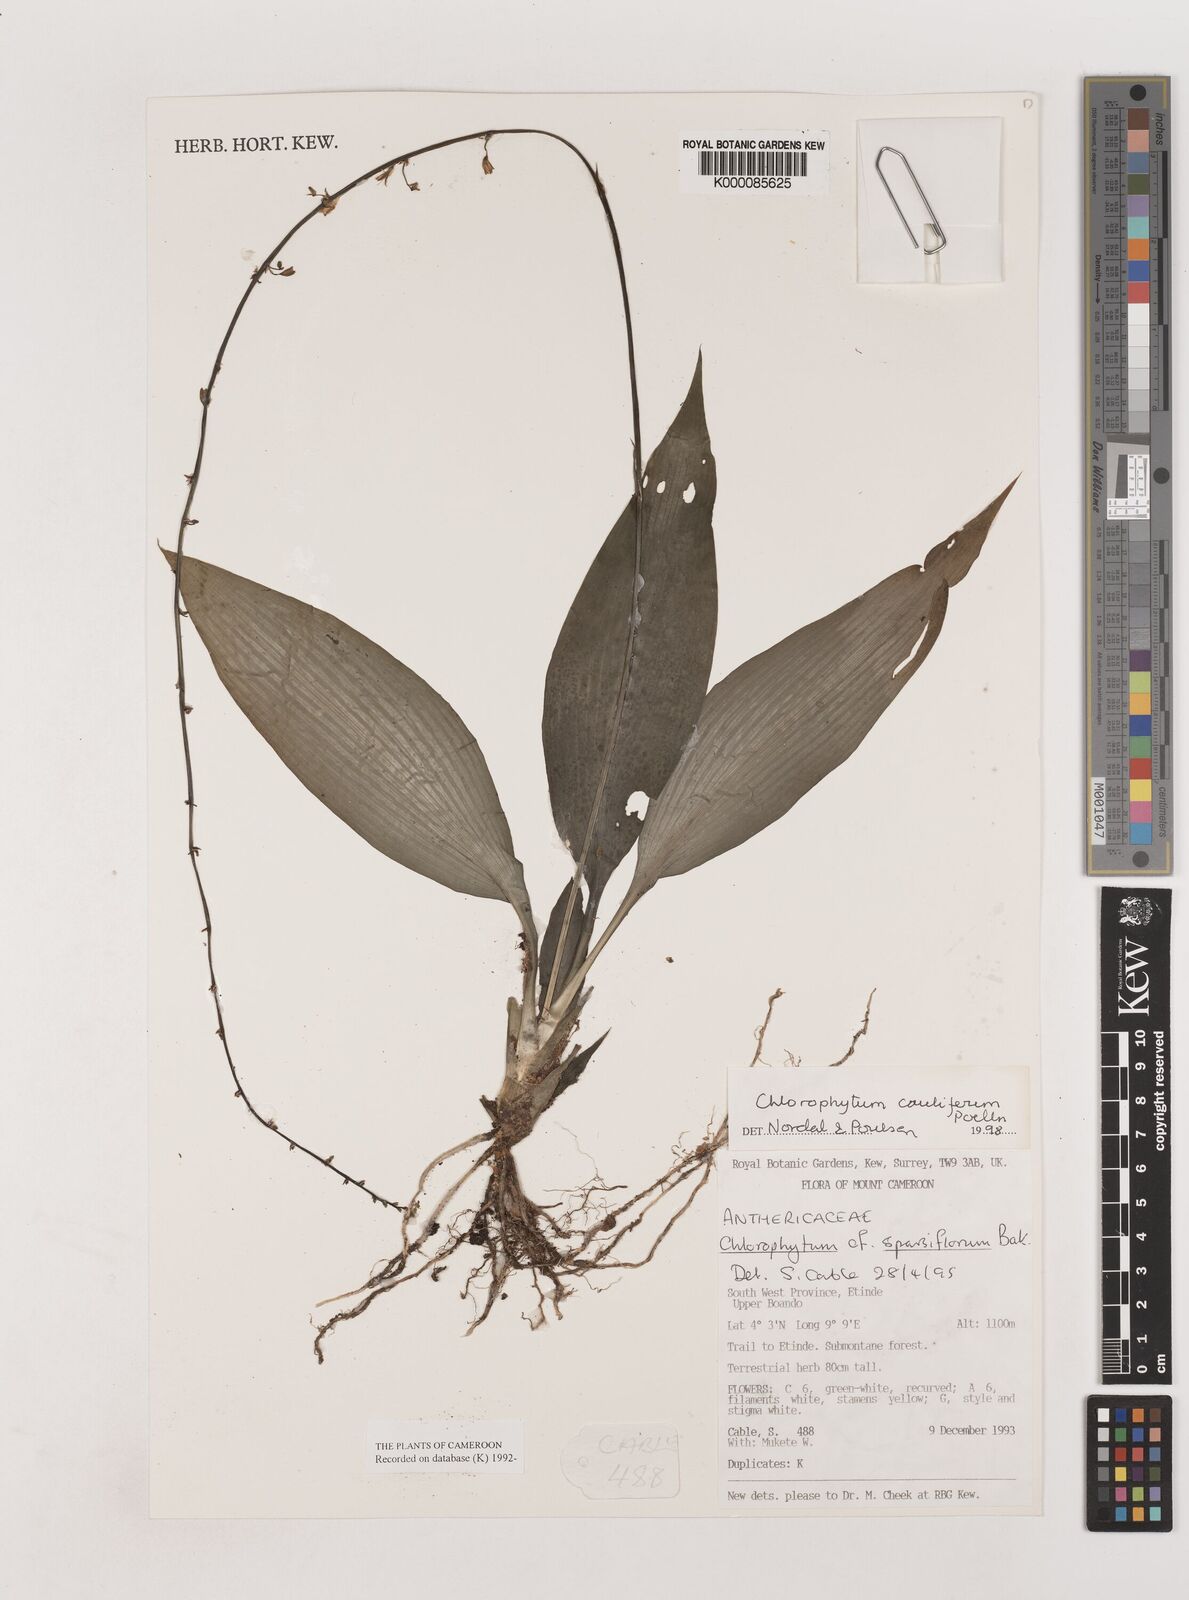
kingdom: Plantae
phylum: Tracheophyta
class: Liliopsida
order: Asparagales
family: Asparagaceae
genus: Chlorophytum
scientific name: Chlorophytum sparsiflorum
